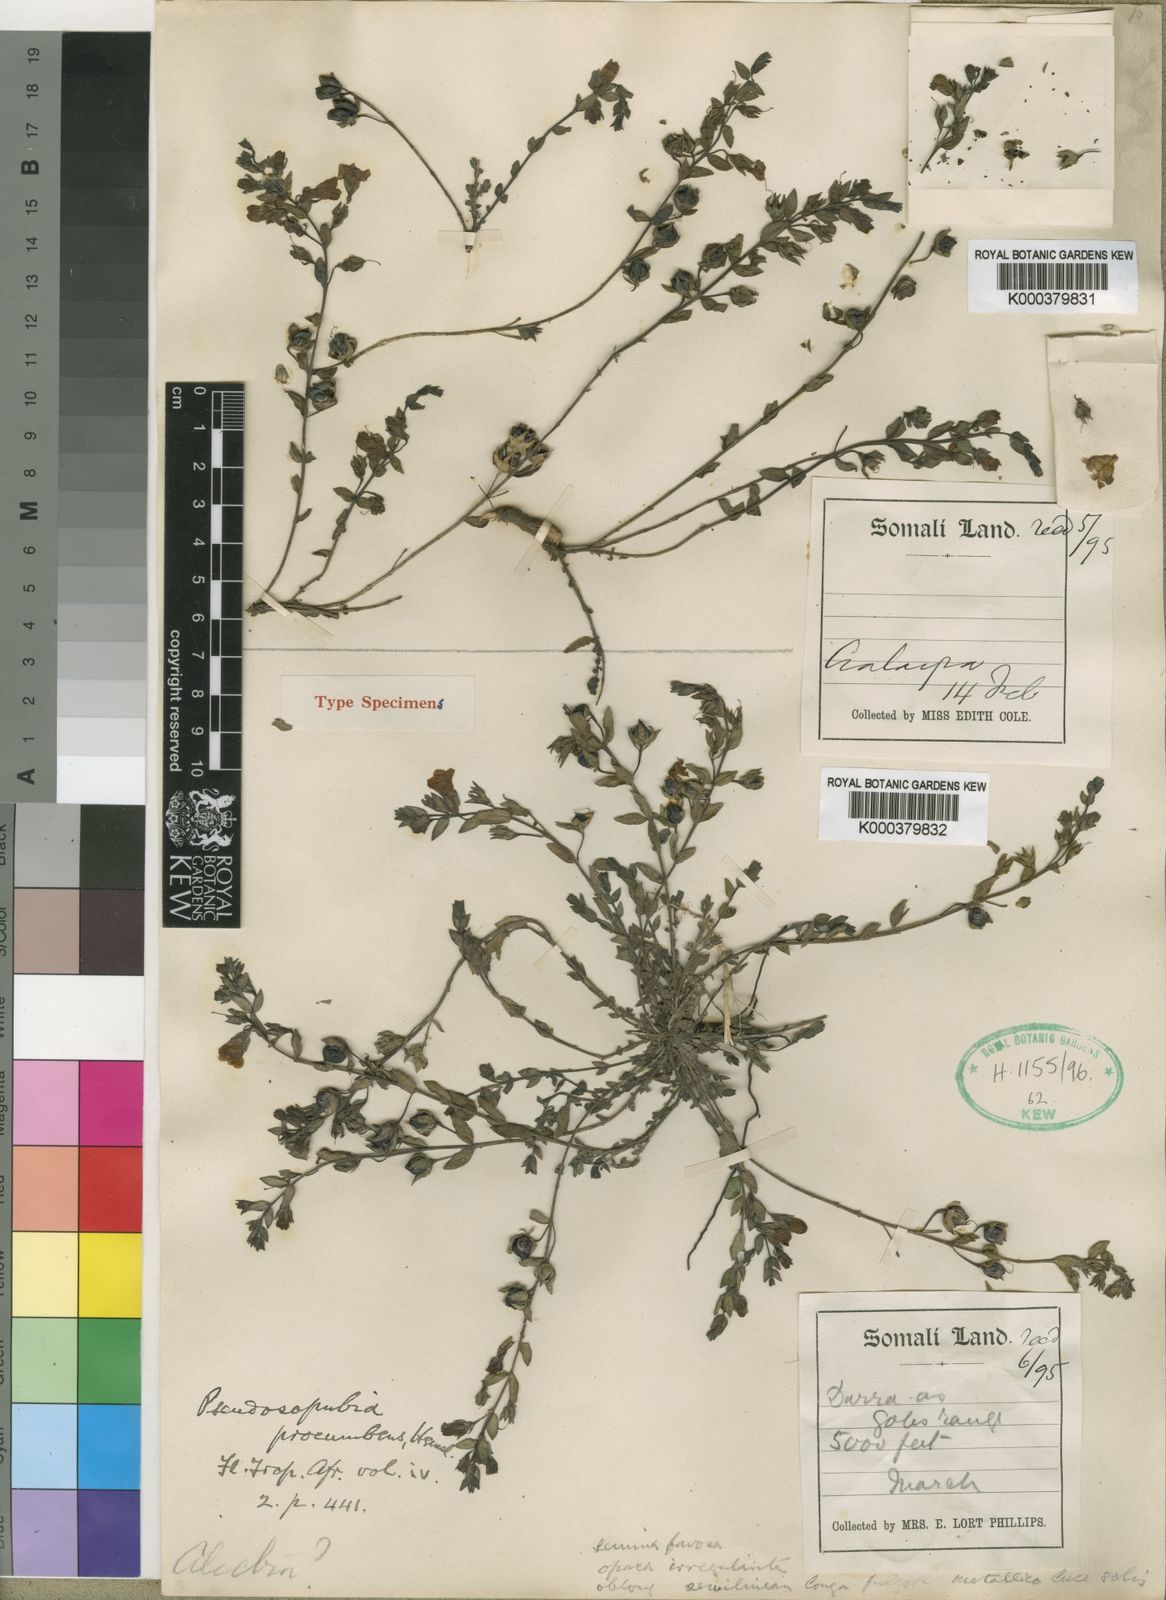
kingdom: Plantae
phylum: Tracheophyta
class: Magnoliopsida
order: Lamiales
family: Orobanchaceae
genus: Pseudosopubia
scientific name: Pseudosopubia procumbens
